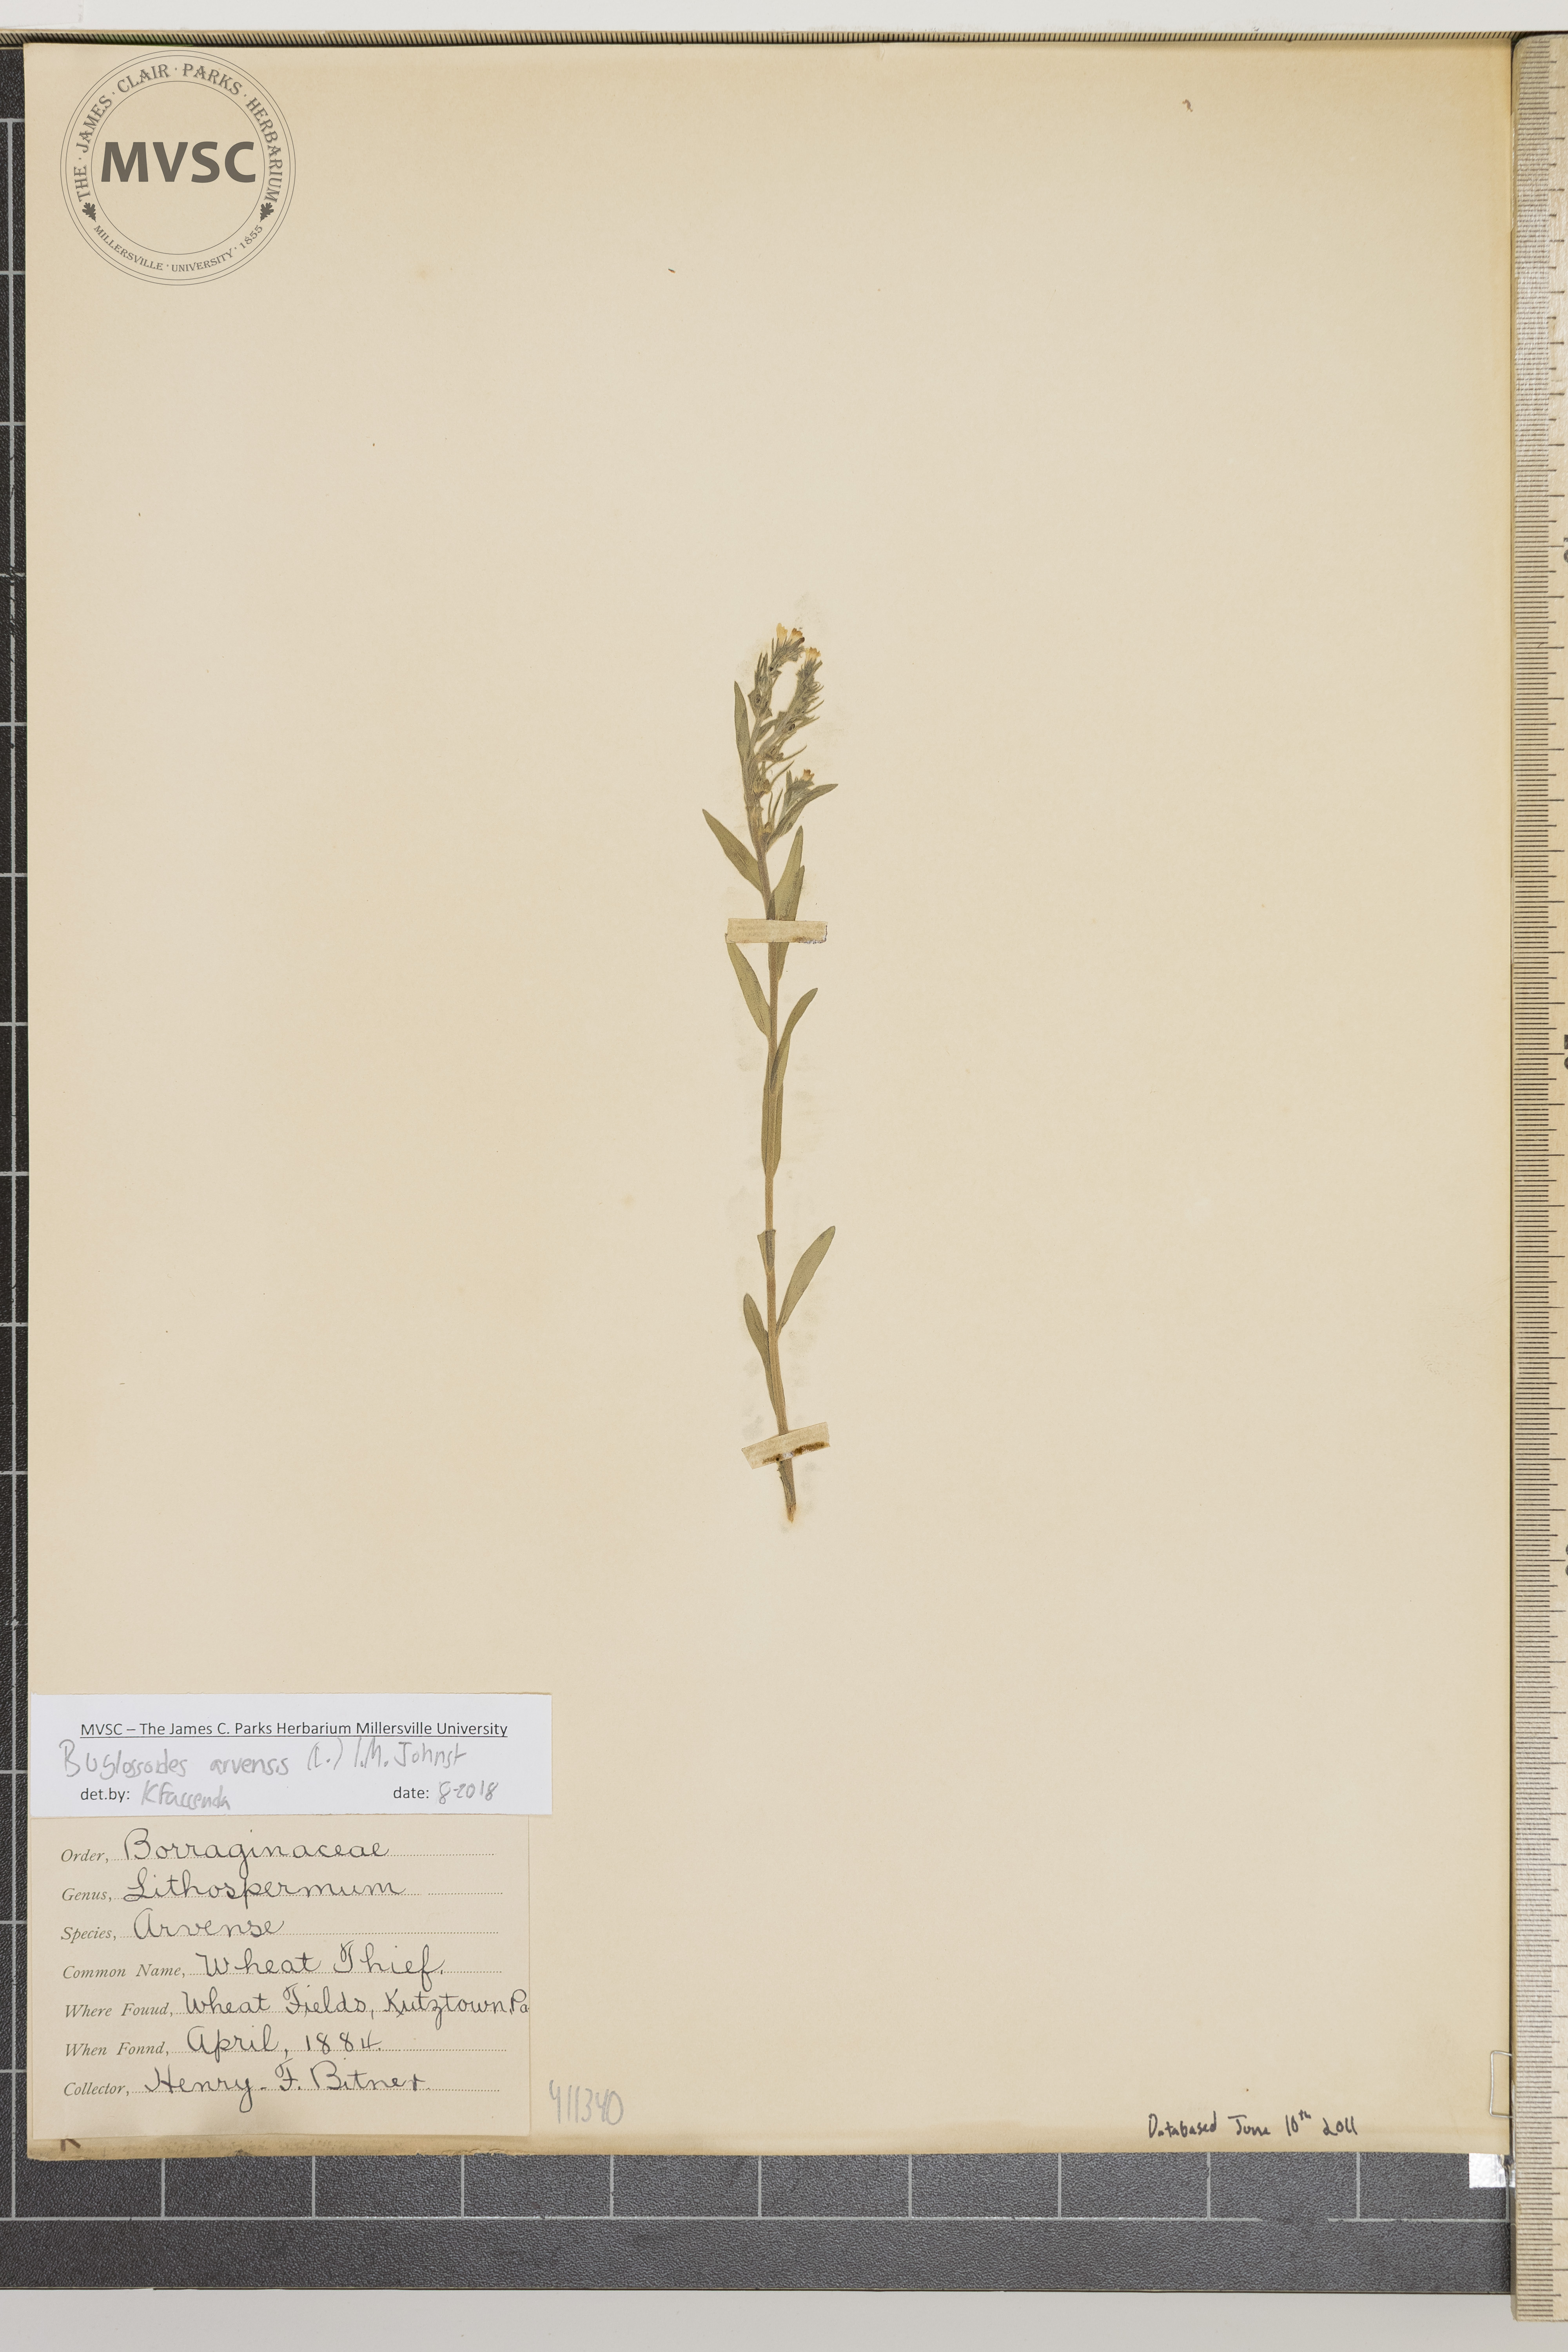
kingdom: Plantae
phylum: Tracheophyta
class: Magnoliopsida
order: Boraginales
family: Boraginaceae
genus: Buglossoides
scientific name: Buglossoides arvensis
